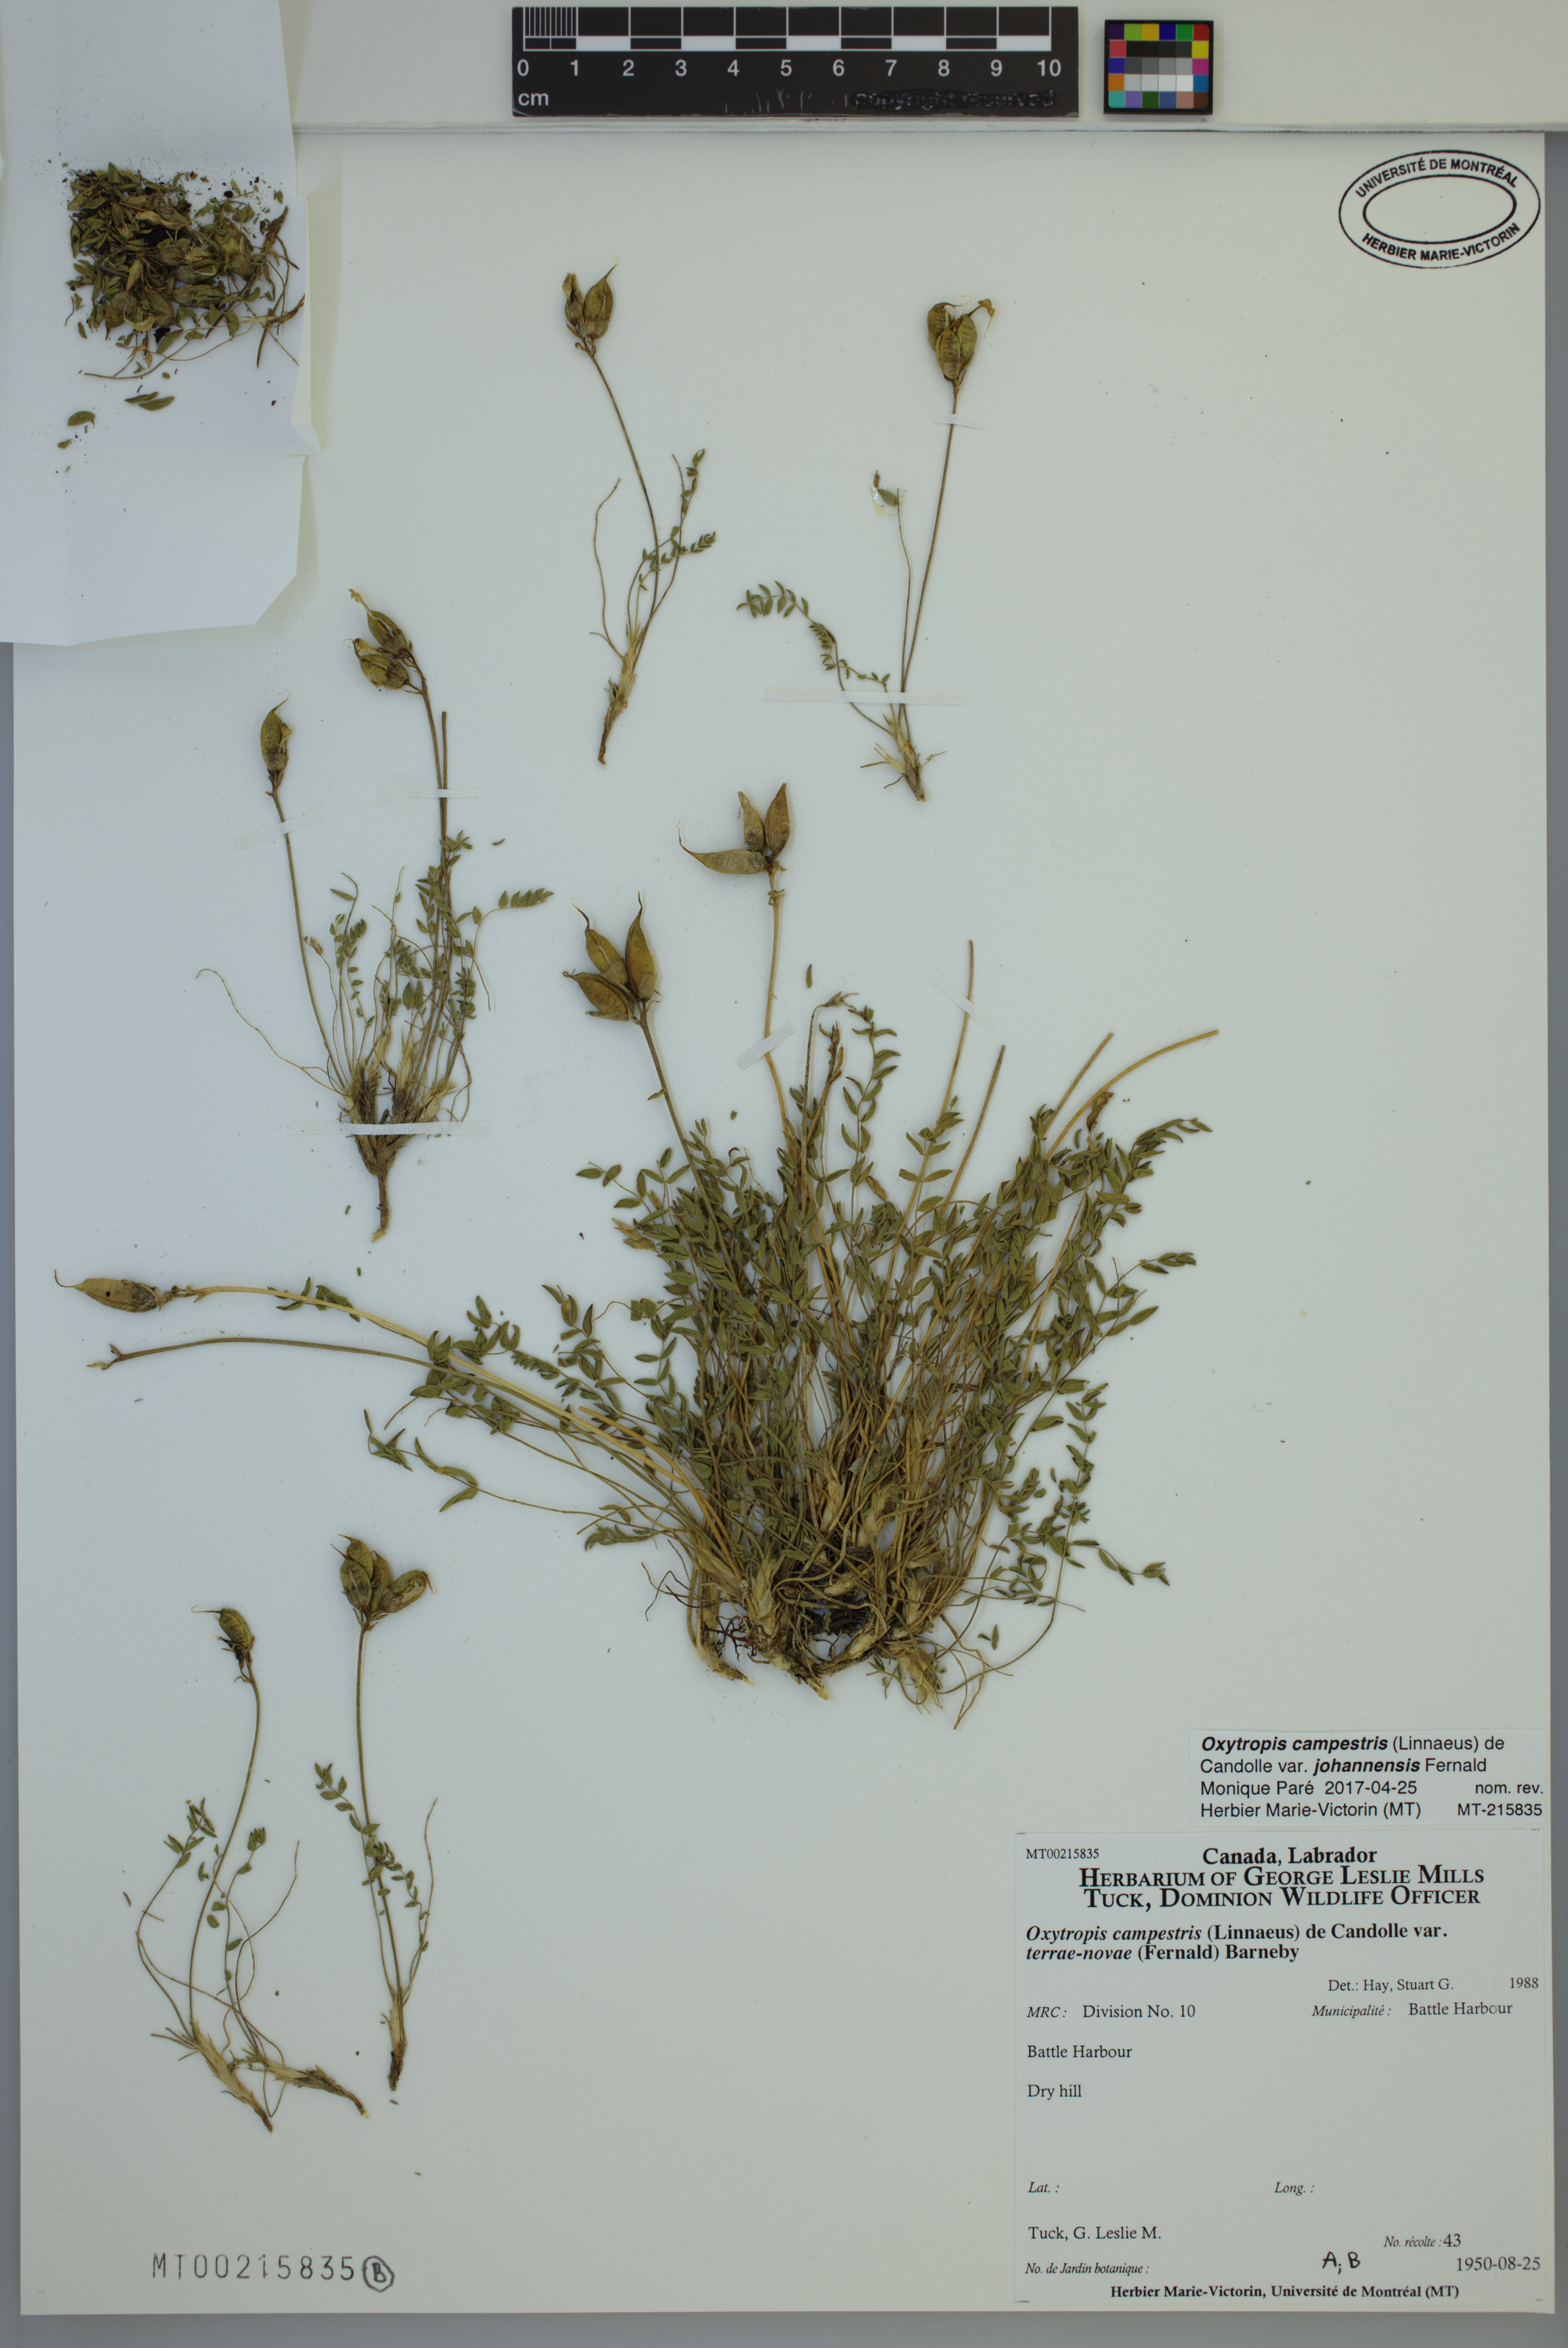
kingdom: Plantae
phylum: Tracheophyta
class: Magnoliopsida
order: Fabales
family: Fabaceae
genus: Oxytropis
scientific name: Oxytropis campestris
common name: Field locoweed
